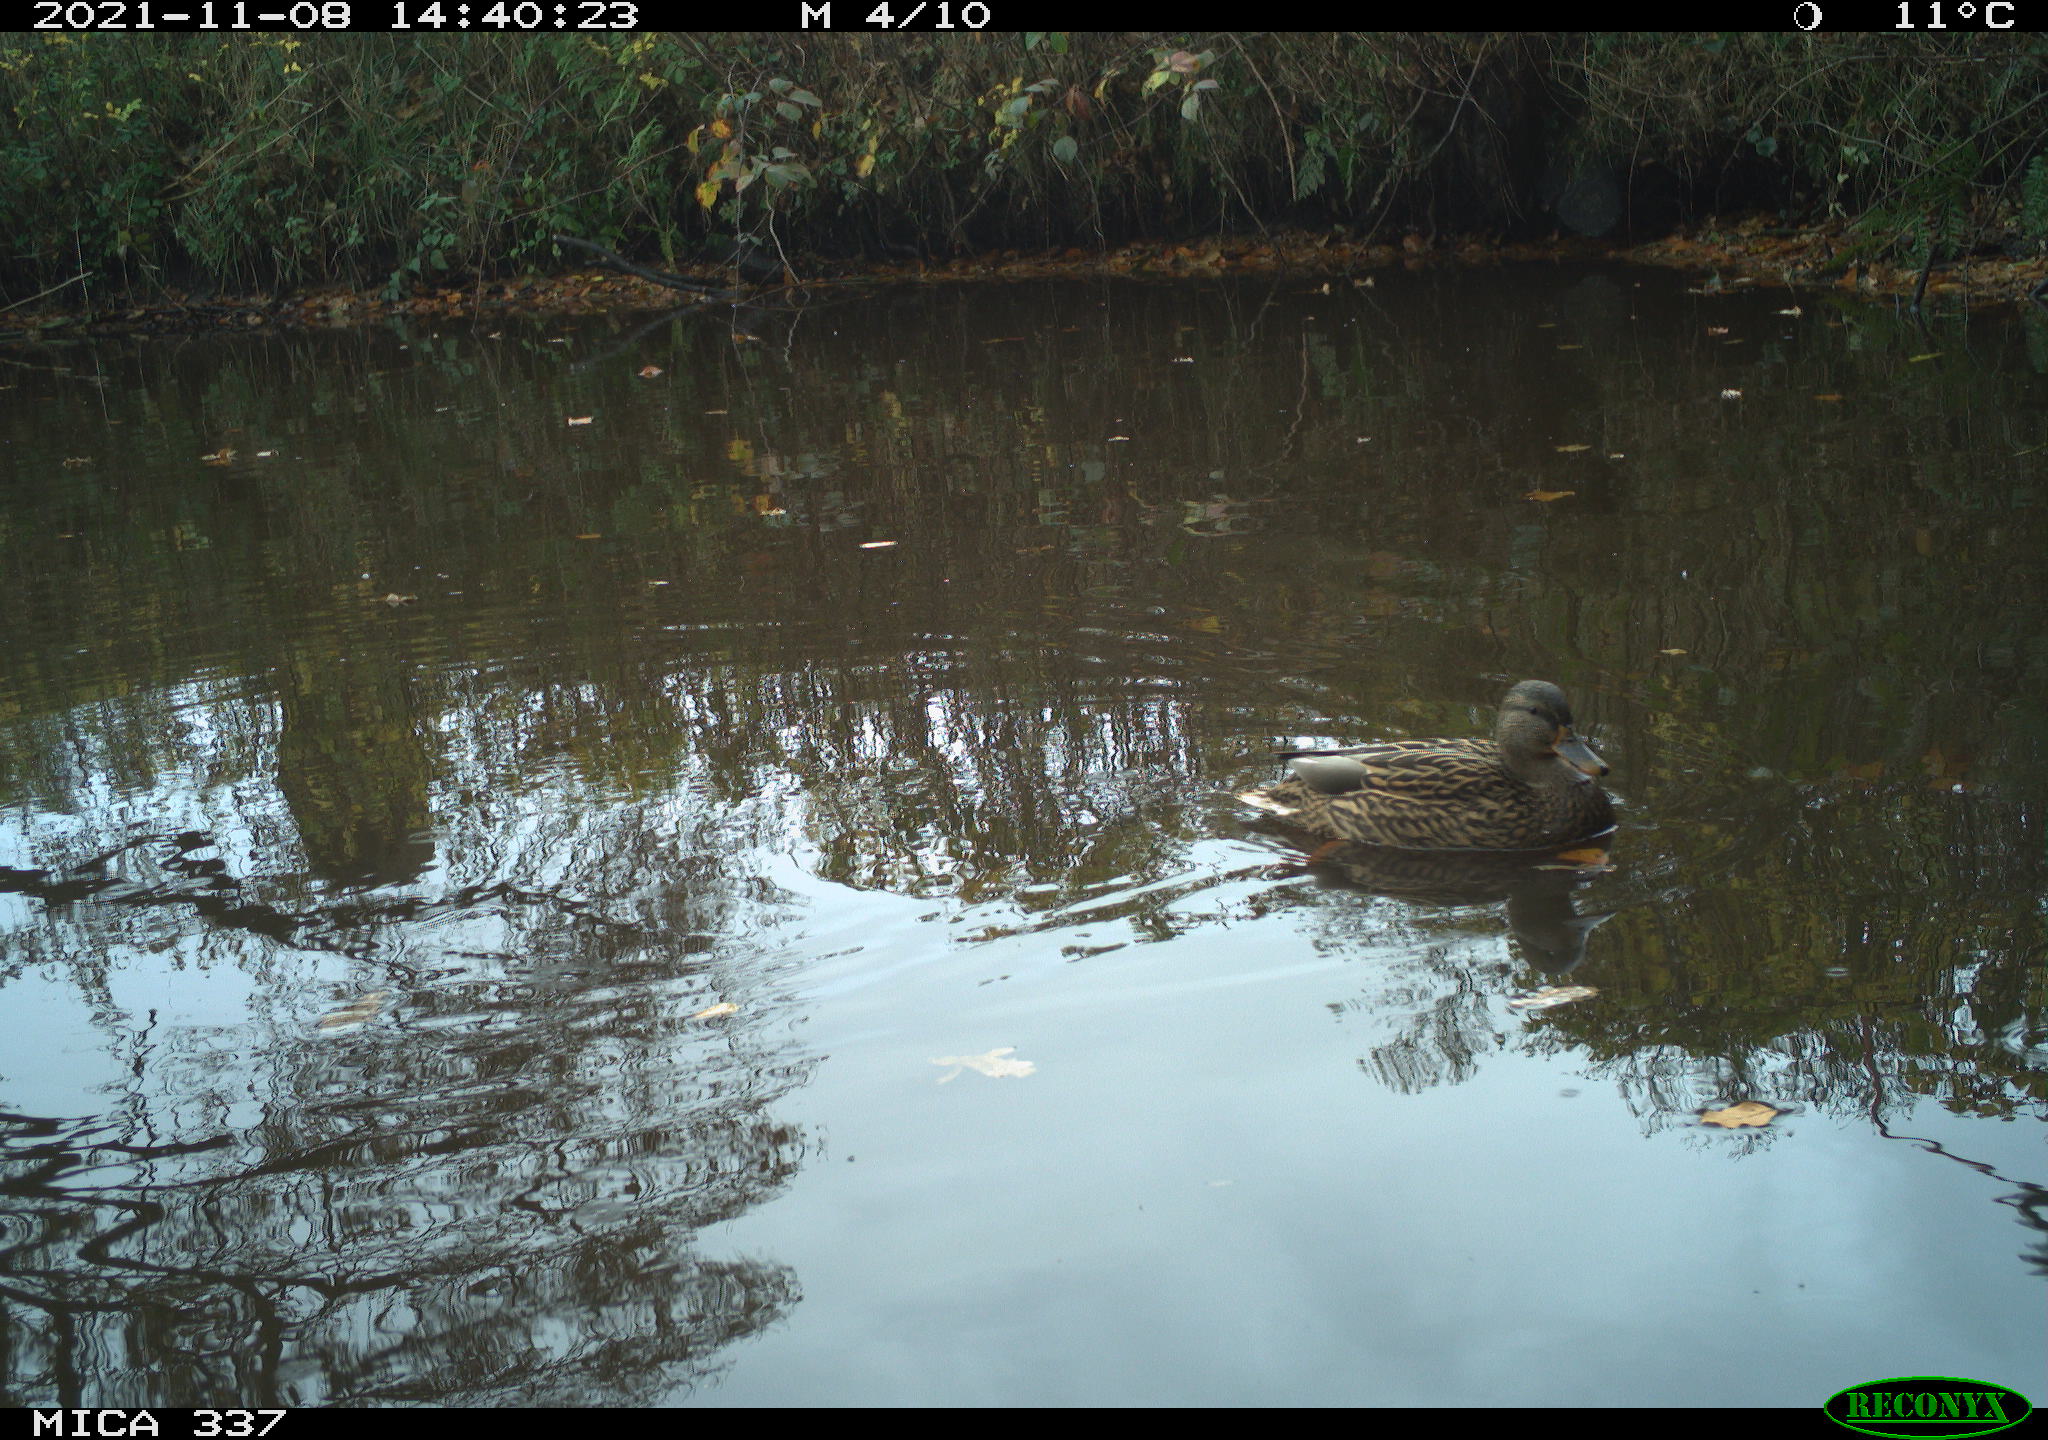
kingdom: Animalia
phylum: Chordata
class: Aves
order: Anseriformes
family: Anatidae
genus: Anas
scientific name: Anas platyrhynchos
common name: Mallard
